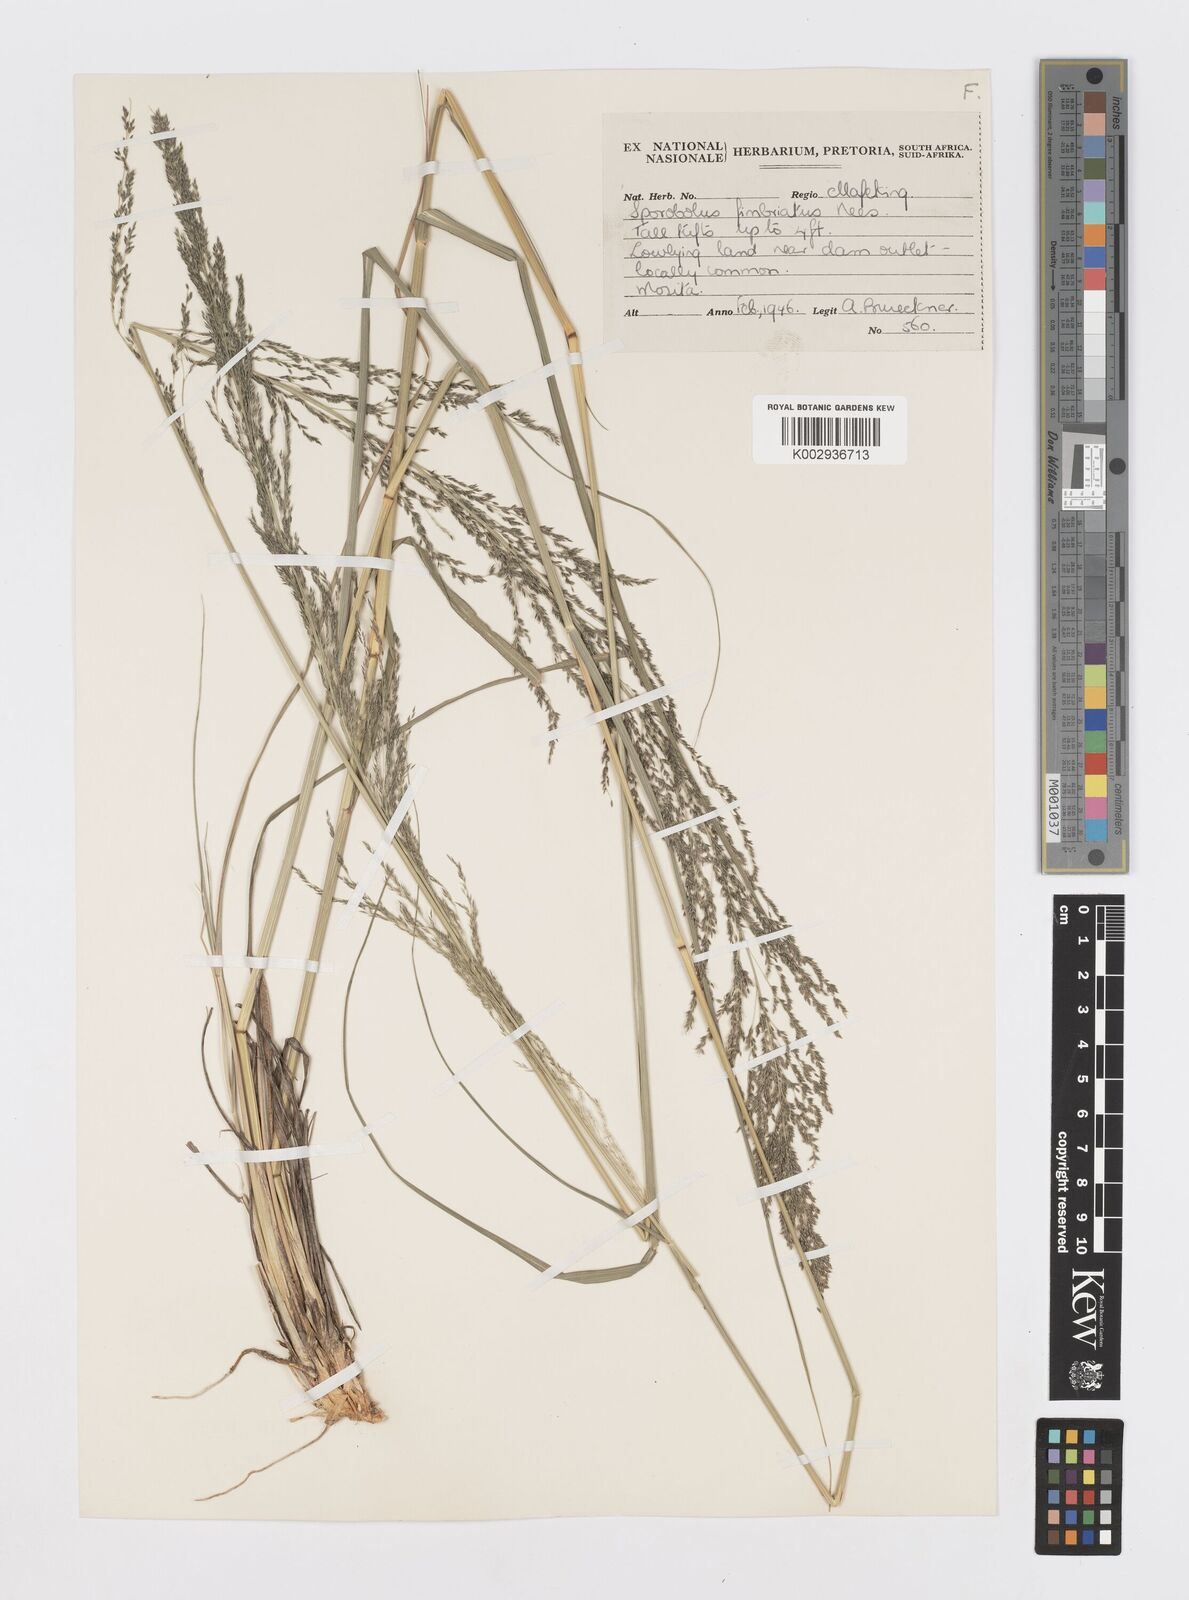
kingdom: Plantae
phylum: Tracheophyta
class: Liliopsida
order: Poales
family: Poaceae
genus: Sporobolus
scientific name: Sporobolus fimbriatus
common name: Fringed dropseed
